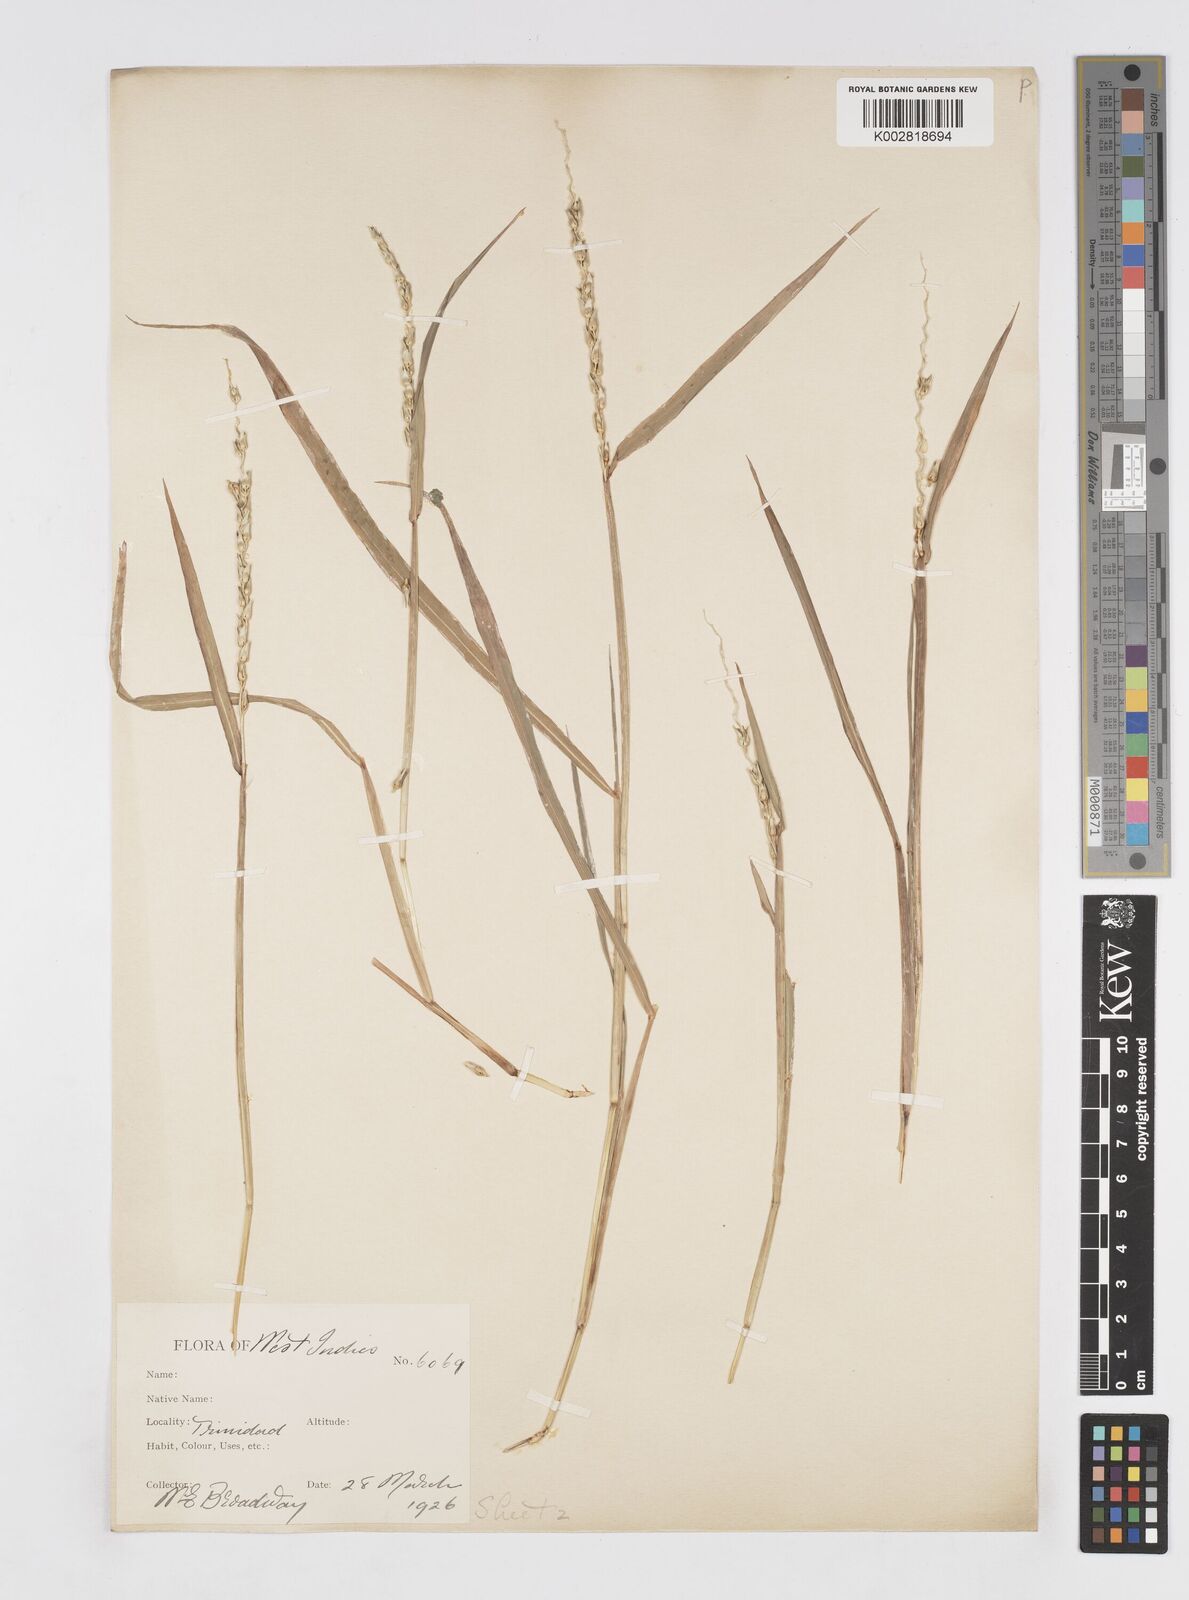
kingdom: Plantae
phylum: Tracheophyta
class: Liliopsida
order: Poales
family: Poaceae
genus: Anthephora
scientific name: Anthephora hermaphrodita
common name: Oldfield grass
